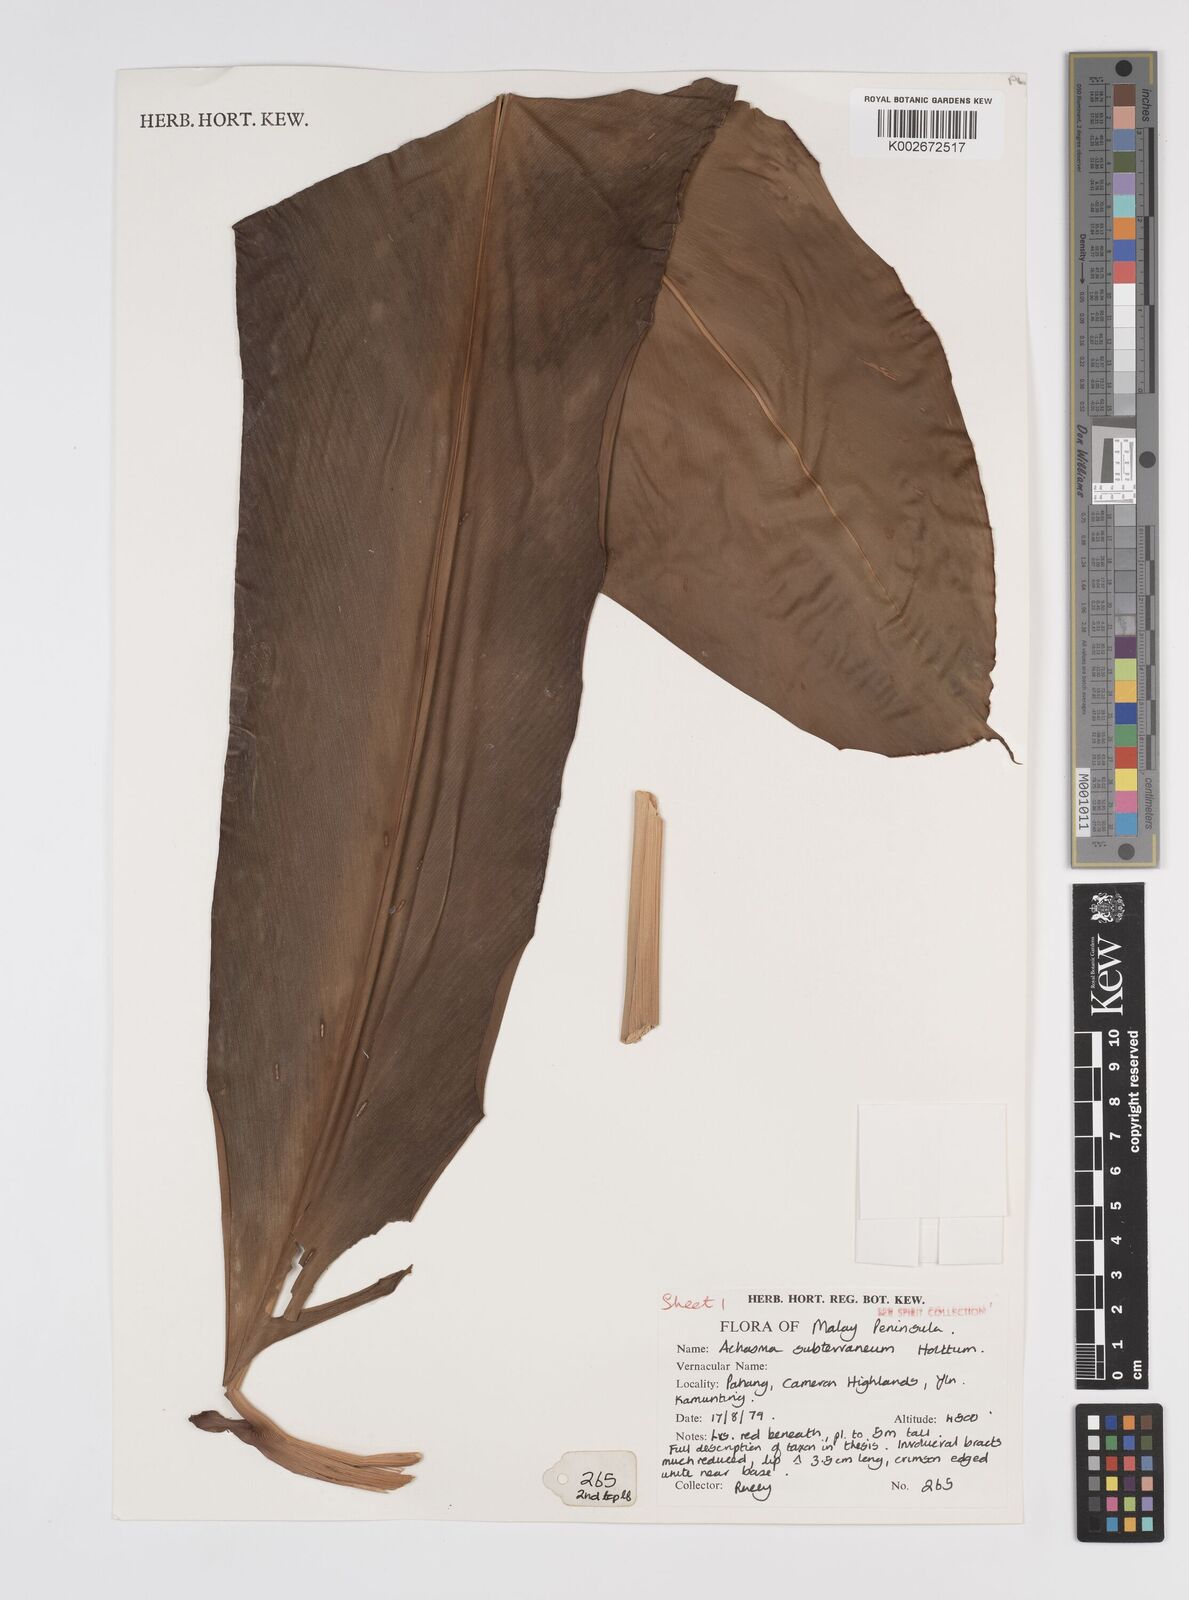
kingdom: Plantae
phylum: Tracheophyta
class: Liliopsida
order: Zingiberales
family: Zingiberaceae
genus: Etlingera
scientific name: Etlingera subterranea
